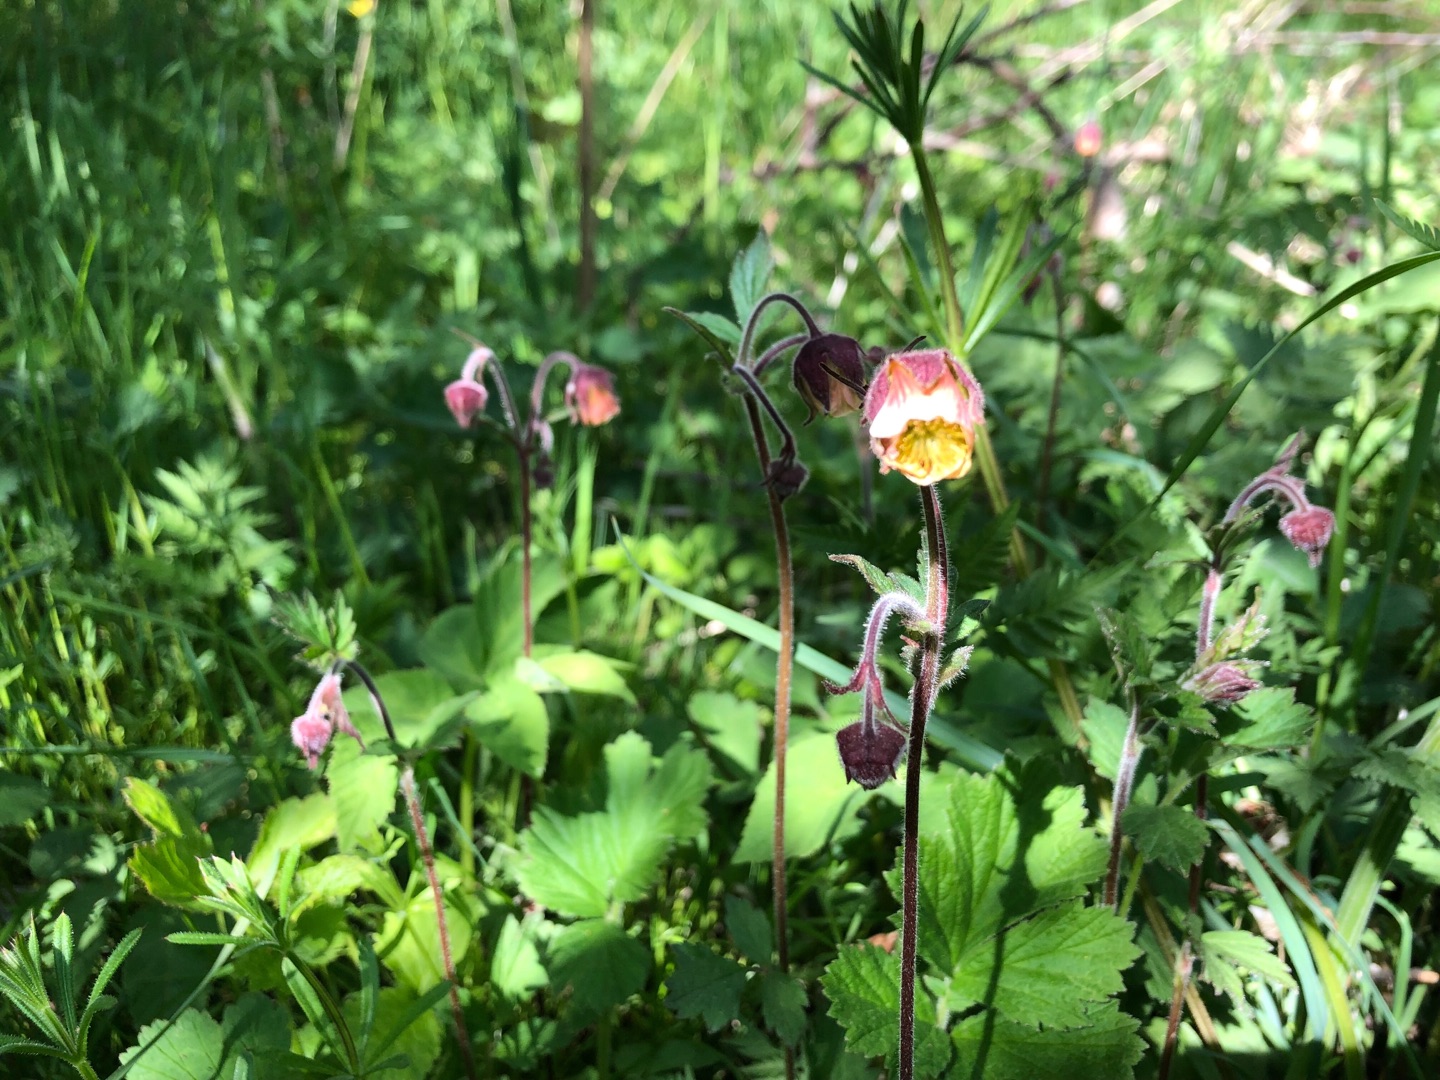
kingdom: Plantae
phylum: Tracheophyta
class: Magnoliopsida
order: Rosales
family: Rosaceae
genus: Geum
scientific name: Geum rivale
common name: Eng-nellikerod
